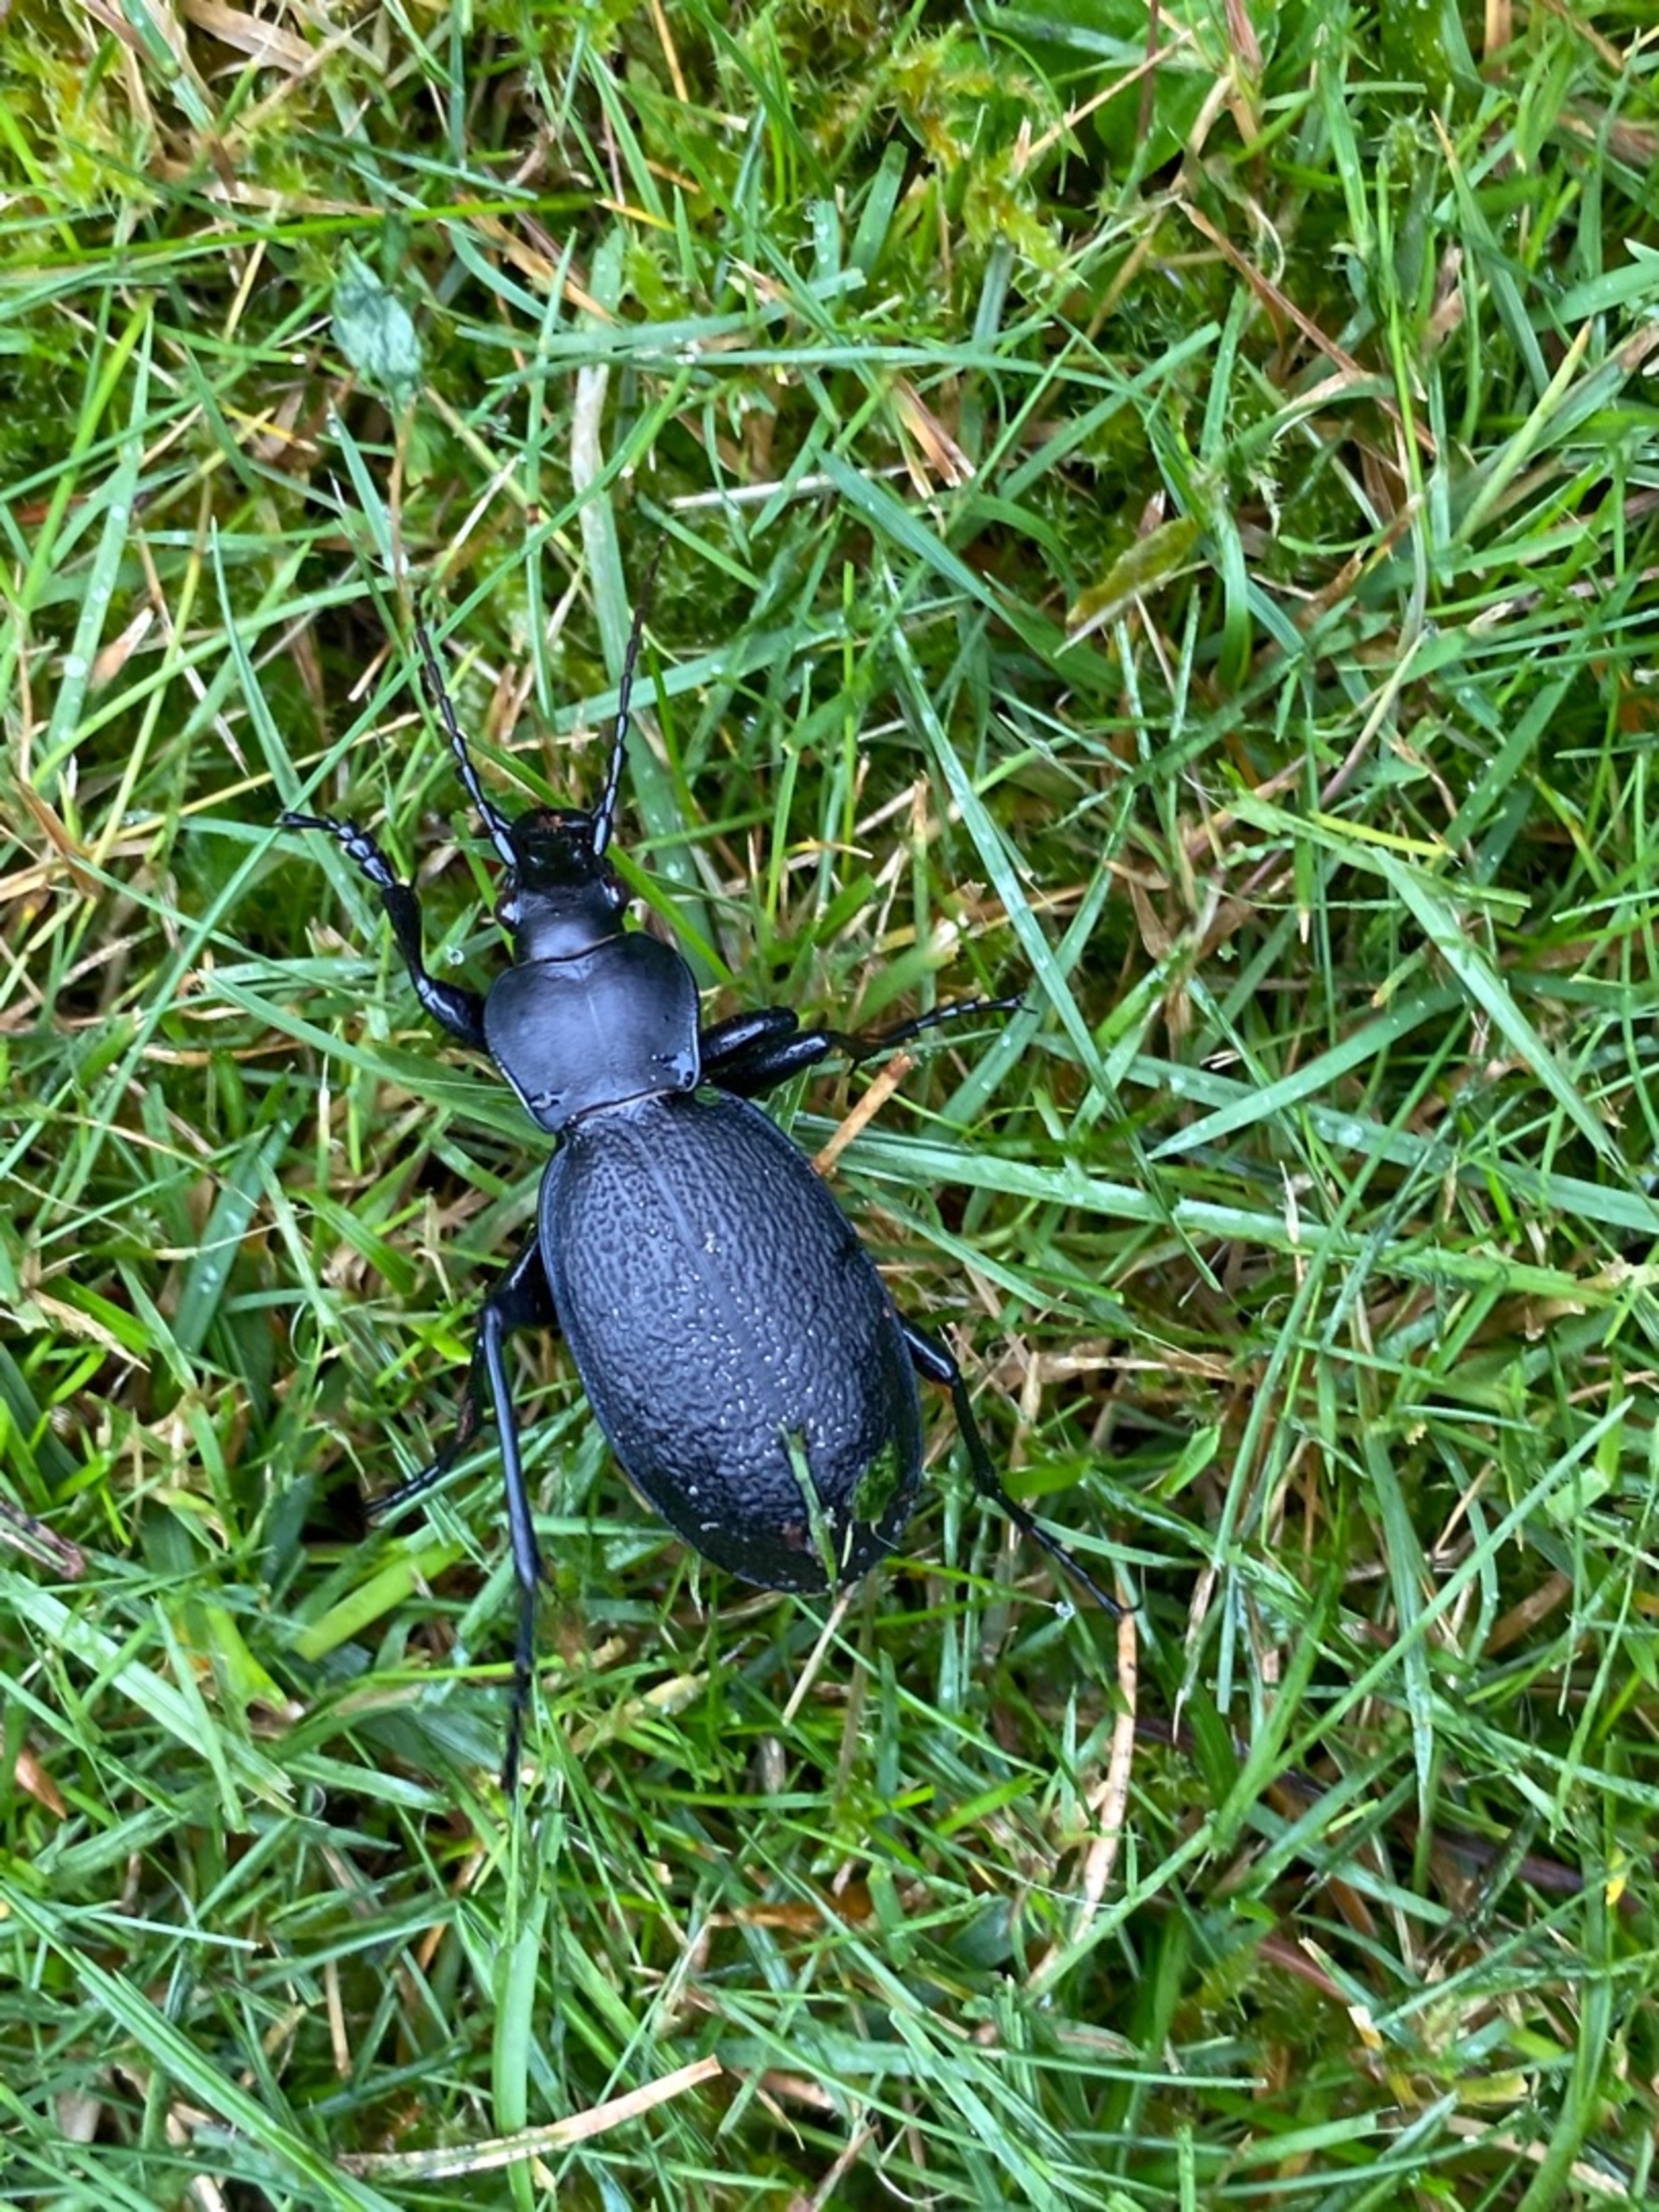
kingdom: Animalia
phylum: Arthropoda
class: Insecta
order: Coleoptera
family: Carabidae
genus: Carabus
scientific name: Carabus coriaceus
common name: Læderløber
